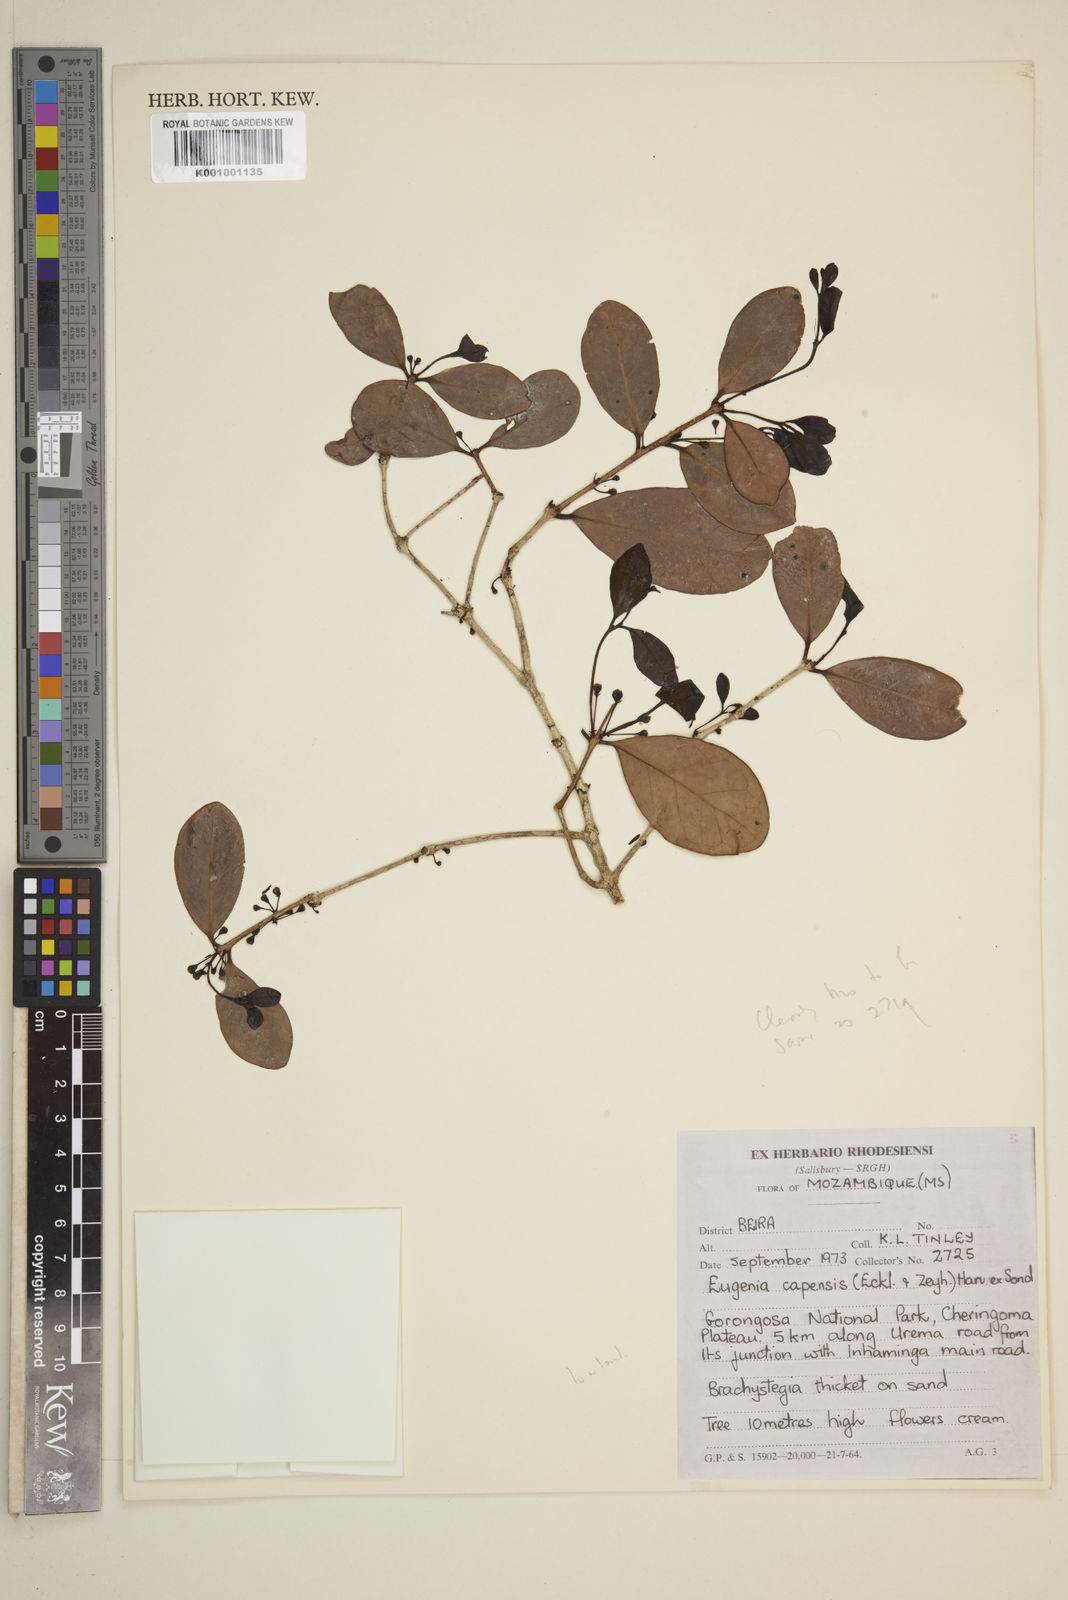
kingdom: Plantae
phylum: Tracheophyta
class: Magnoliopsida
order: Myrtales
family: Myrtaceae
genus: Eugenia
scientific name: Eugenia capensis
